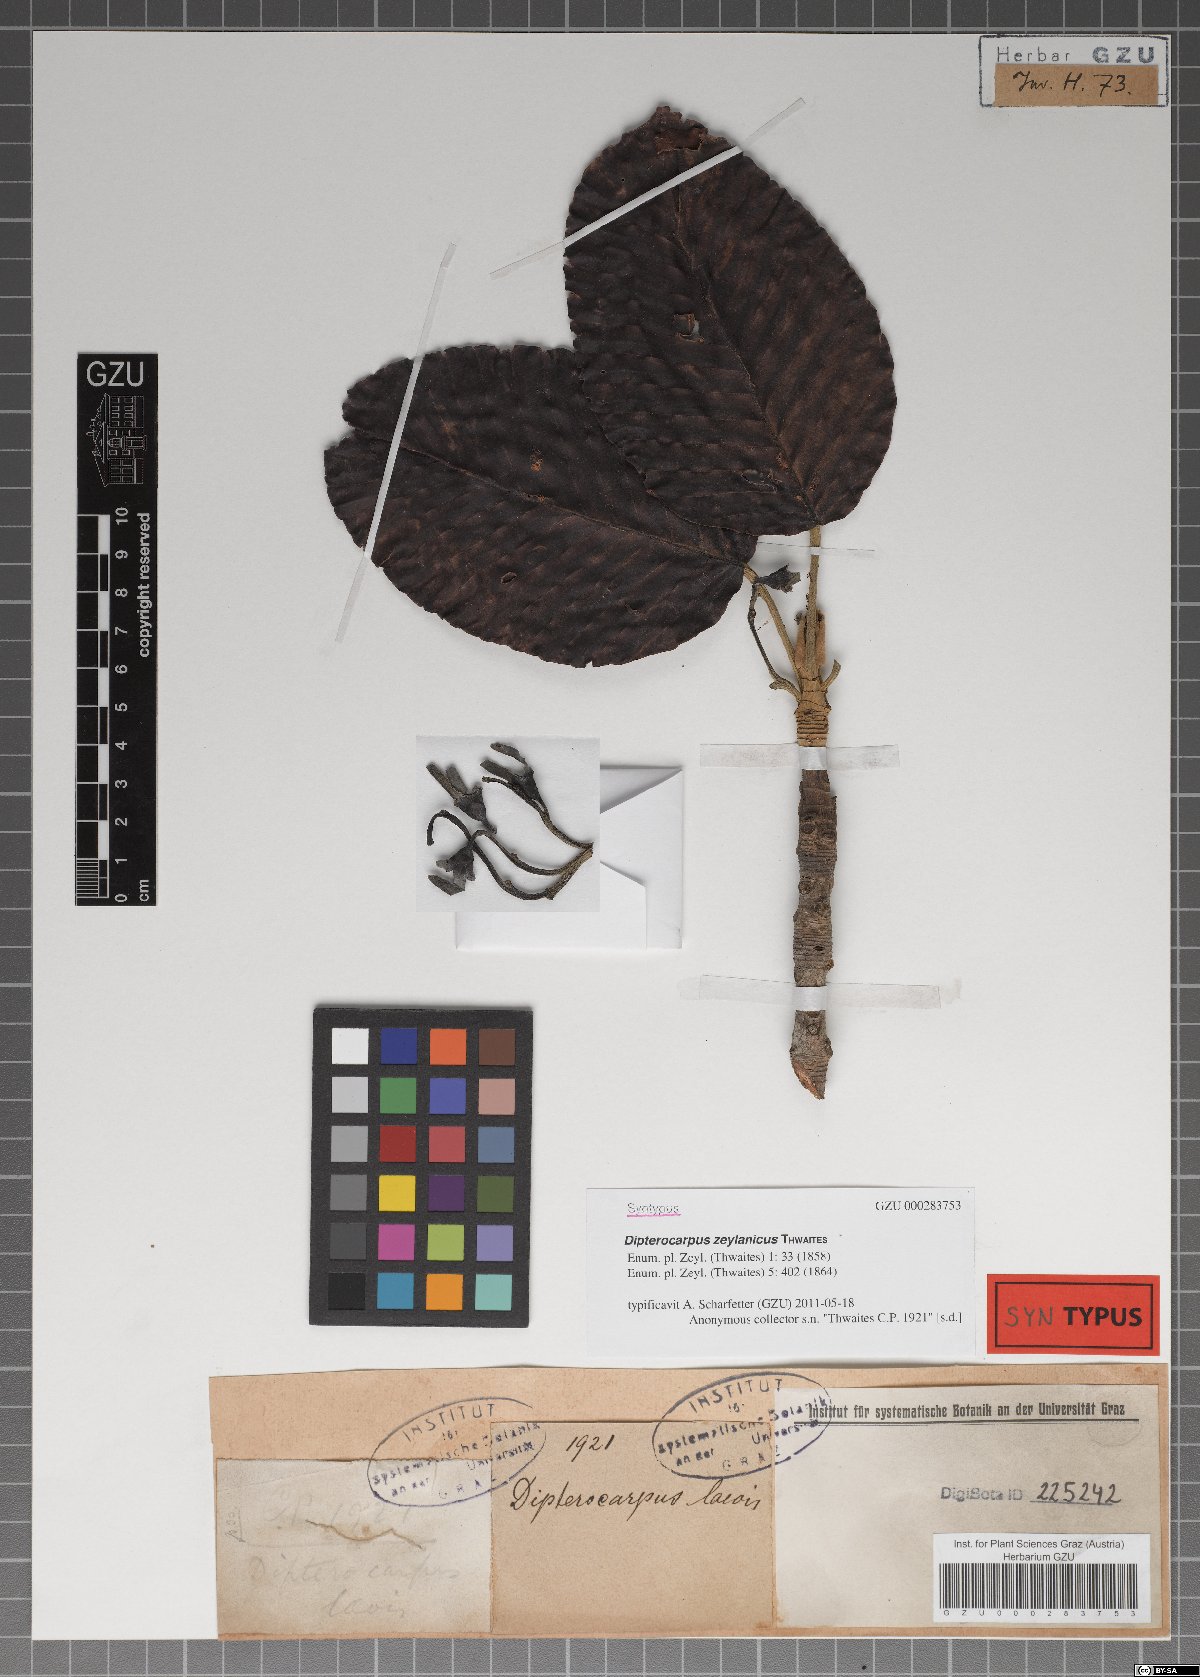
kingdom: Plantae
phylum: Tracheophyta
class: Magnoliopsida
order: Malvales
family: Dipterocarpaceae
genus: Dipterocarpus
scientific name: Dipterocarpus zeylanicus
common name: Hora
